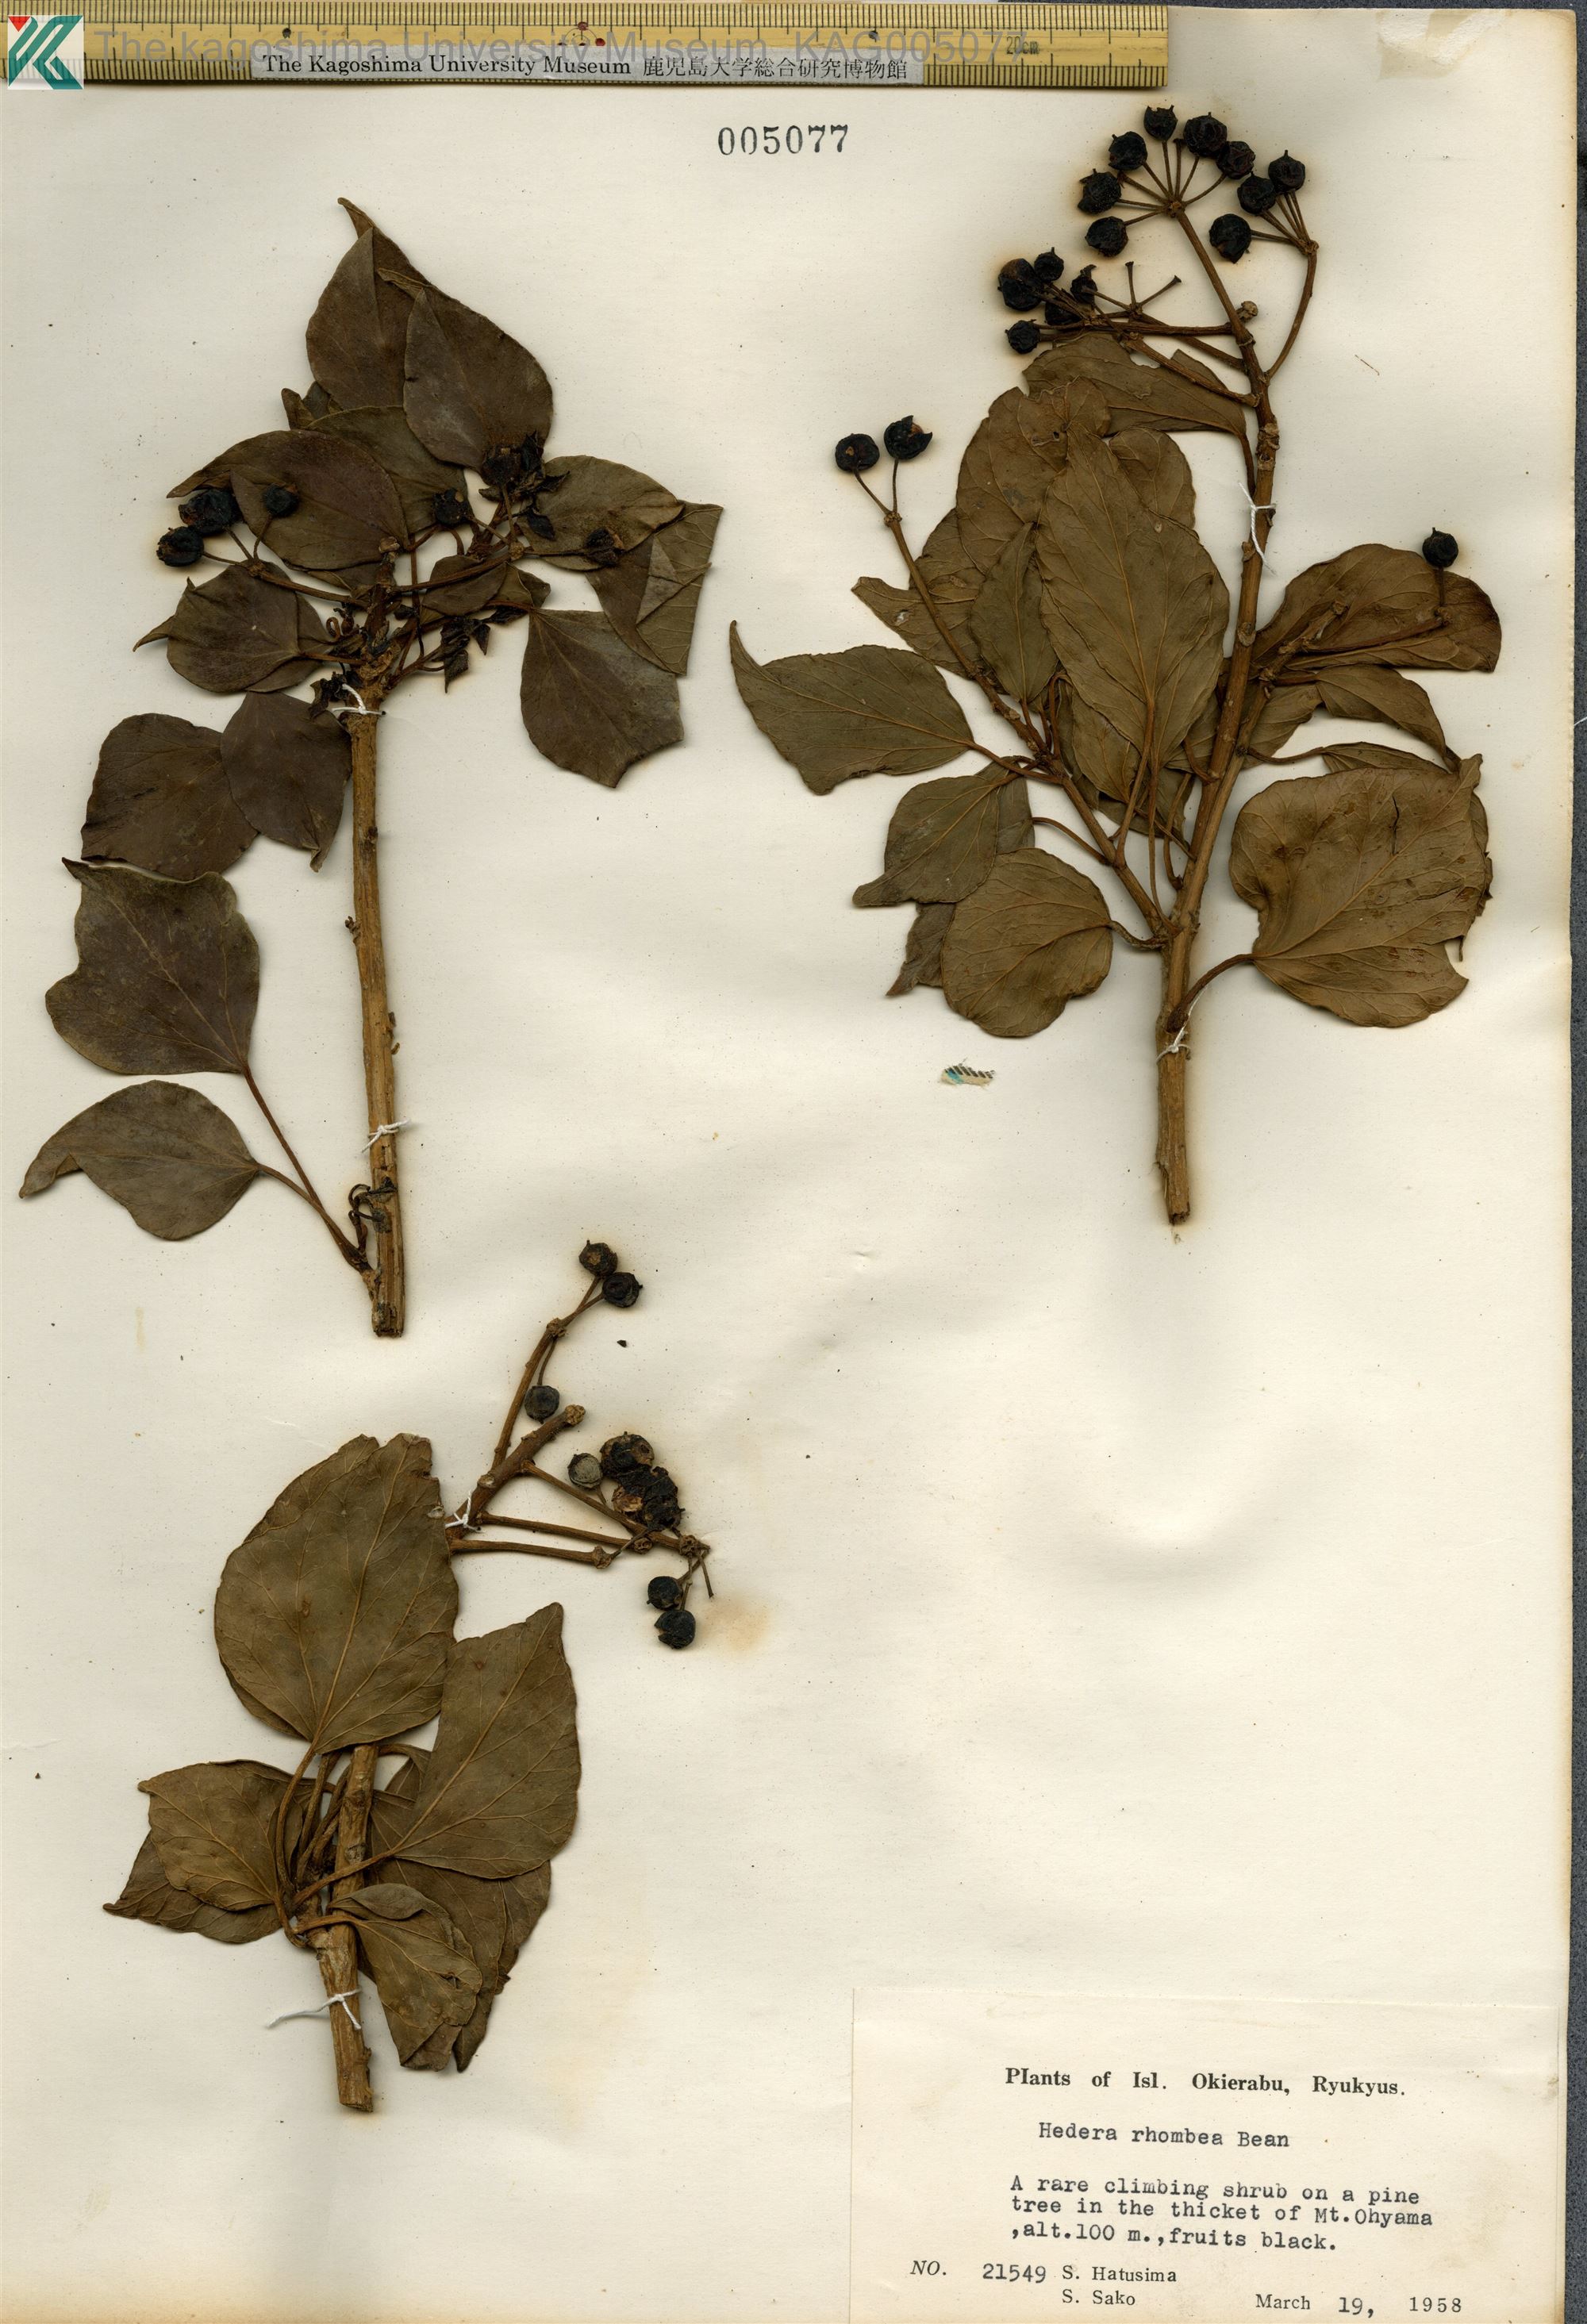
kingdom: Plantae
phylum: Tracheophyta
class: Magnoliopsida
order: Apiales
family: Araliaceae
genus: Hedera
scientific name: Hedera rhombea
